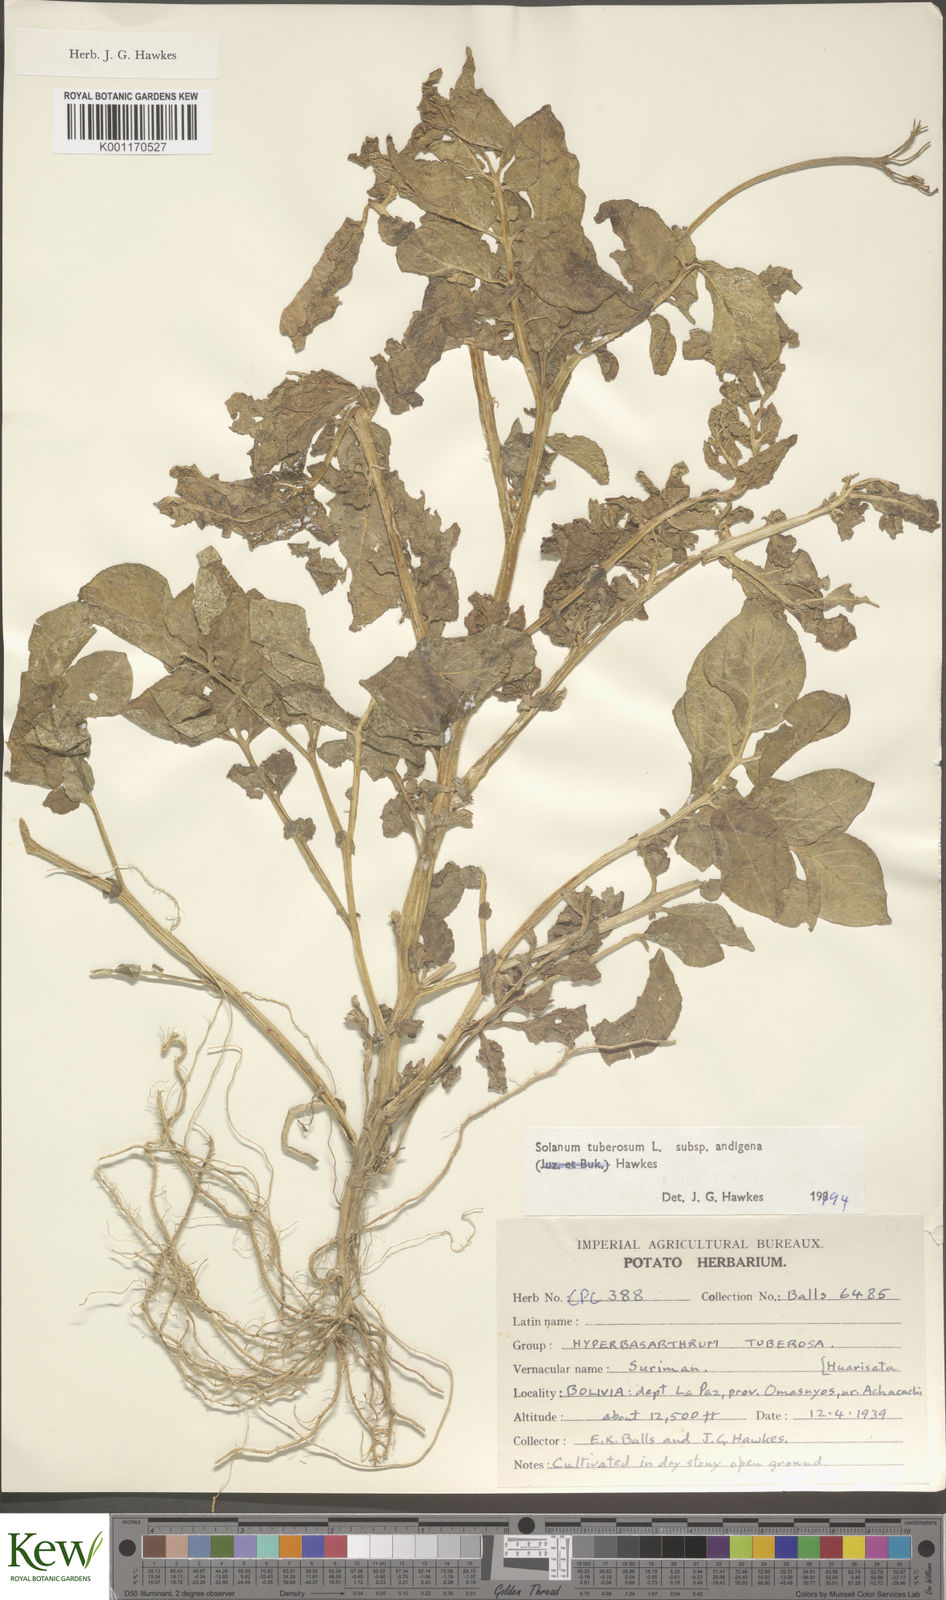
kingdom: Plantae
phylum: Tracheophyta
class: Magnoliopsida
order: Solanales
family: Solanaceae
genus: Solanum
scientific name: Solanum tuberosum
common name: Potato
